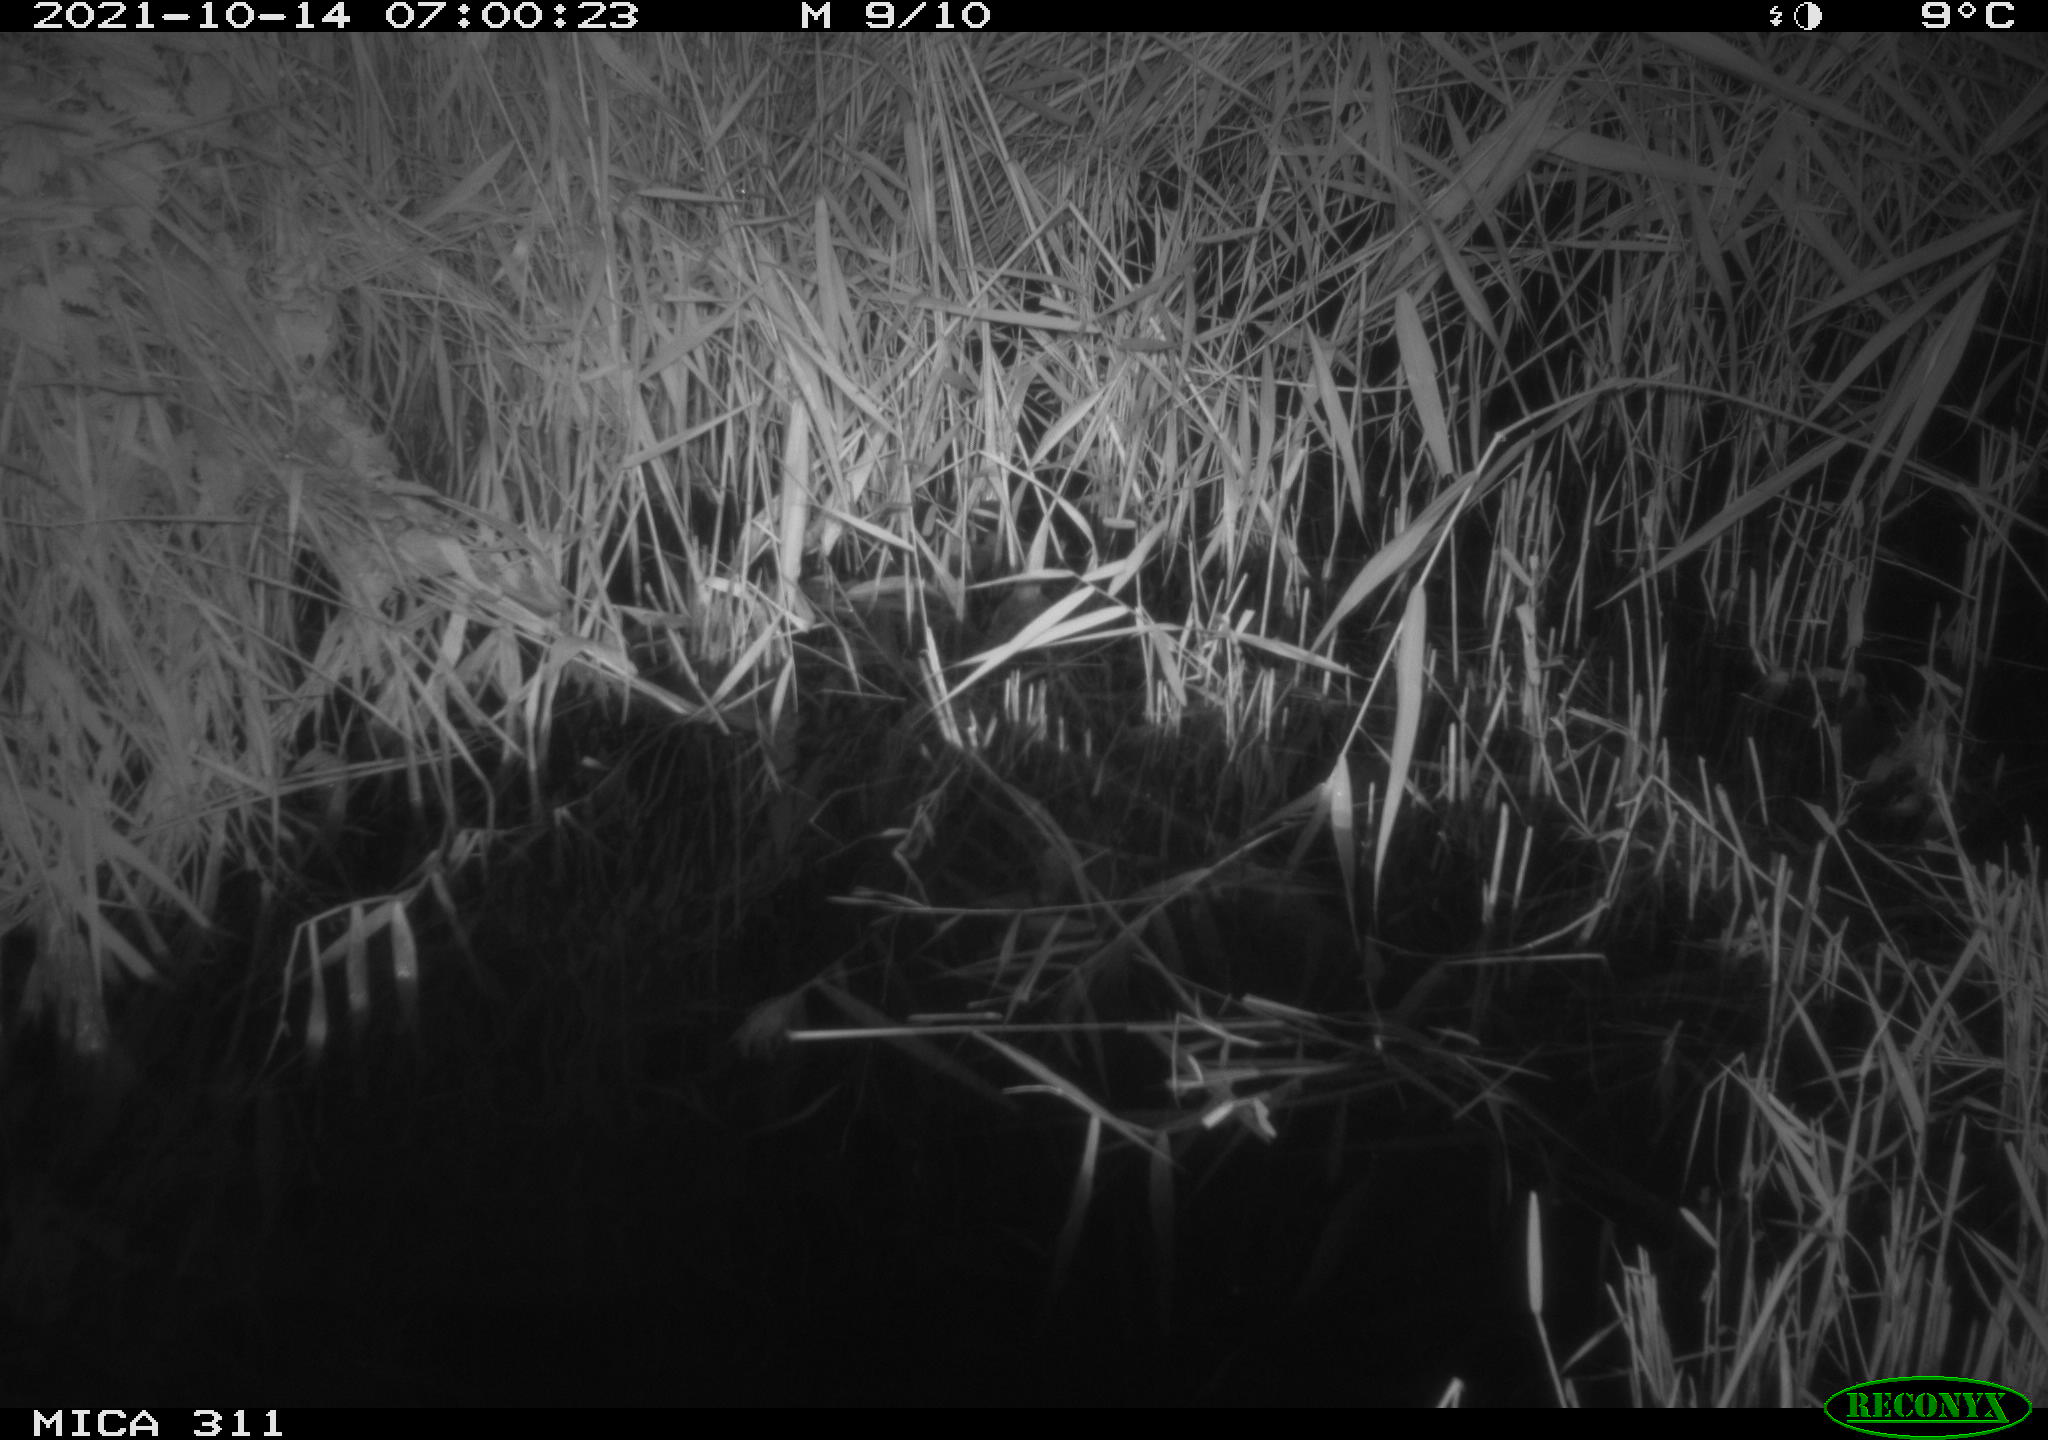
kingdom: Animalia
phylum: Chordata
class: Mammalia
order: Rodentia
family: Muridae
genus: Rattus
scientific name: Rattus norvegicus
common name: Brown rat
